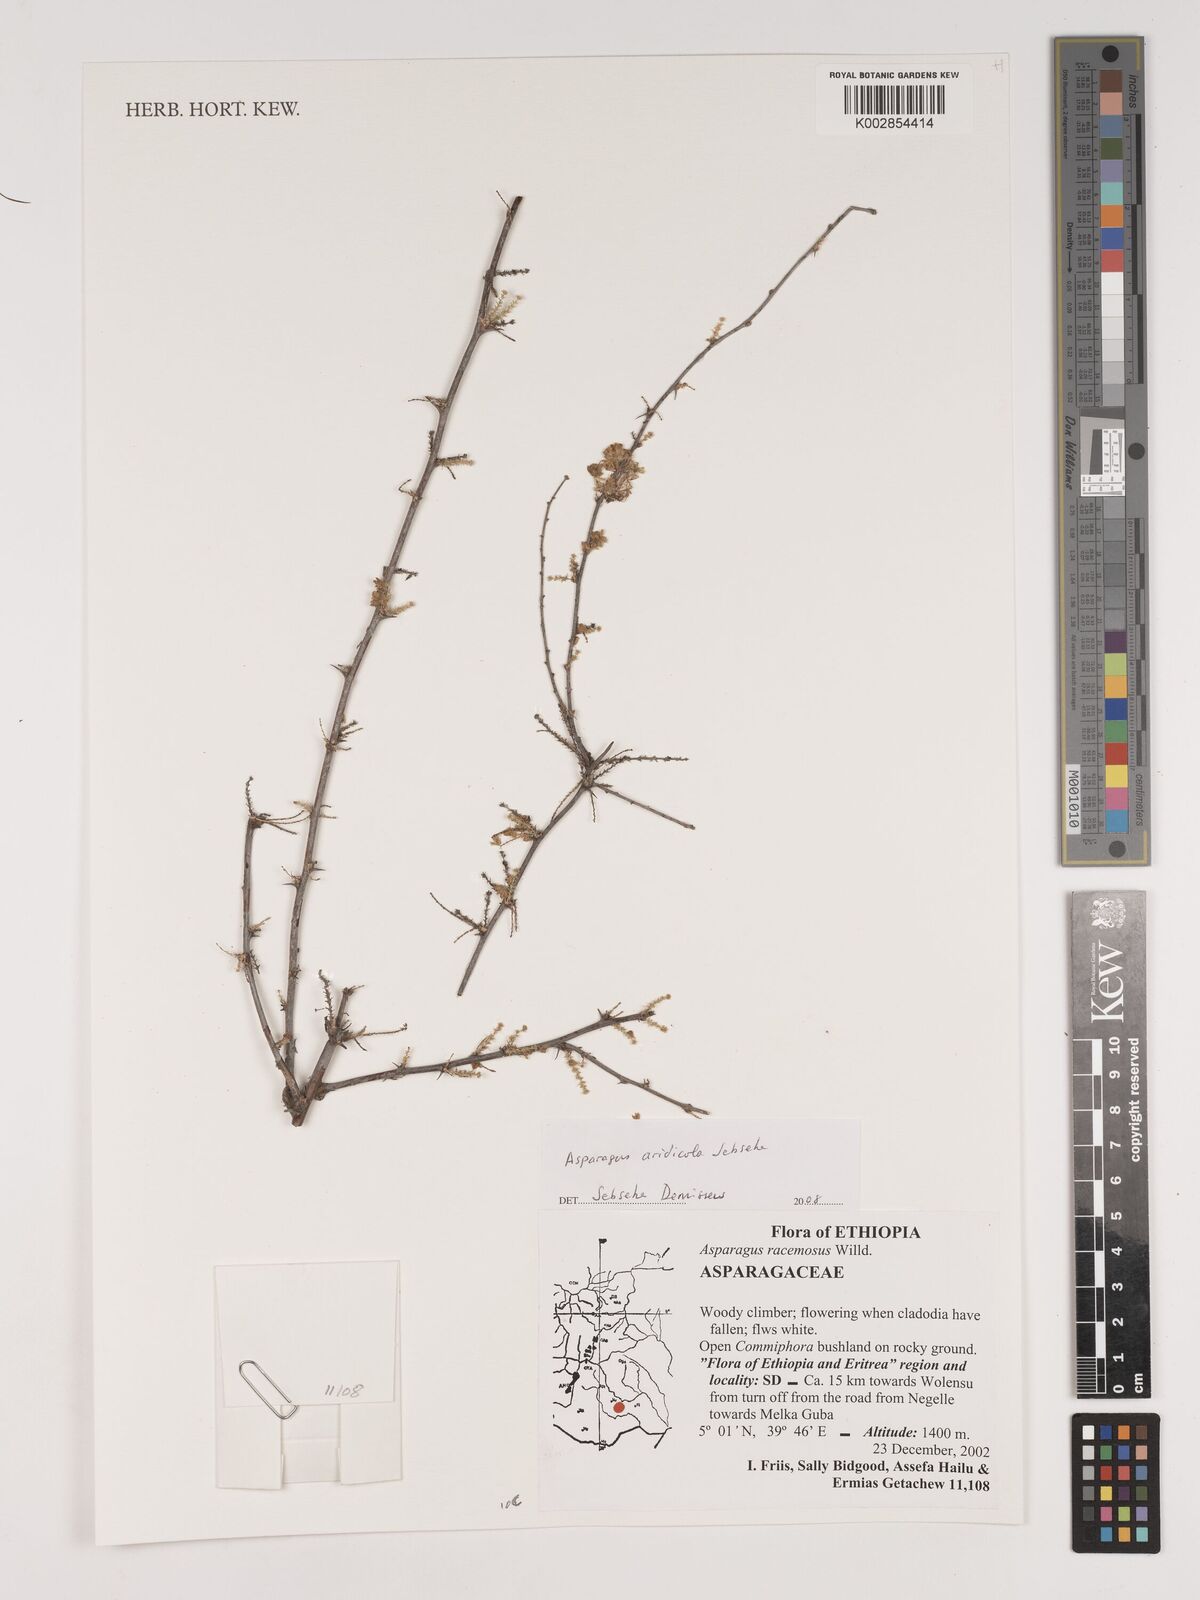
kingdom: Plantae
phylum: Tracheophyta
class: Liliopsida
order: Asparagales
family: Asparagaceae
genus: Asparagus
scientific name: Asparagus aridicola
